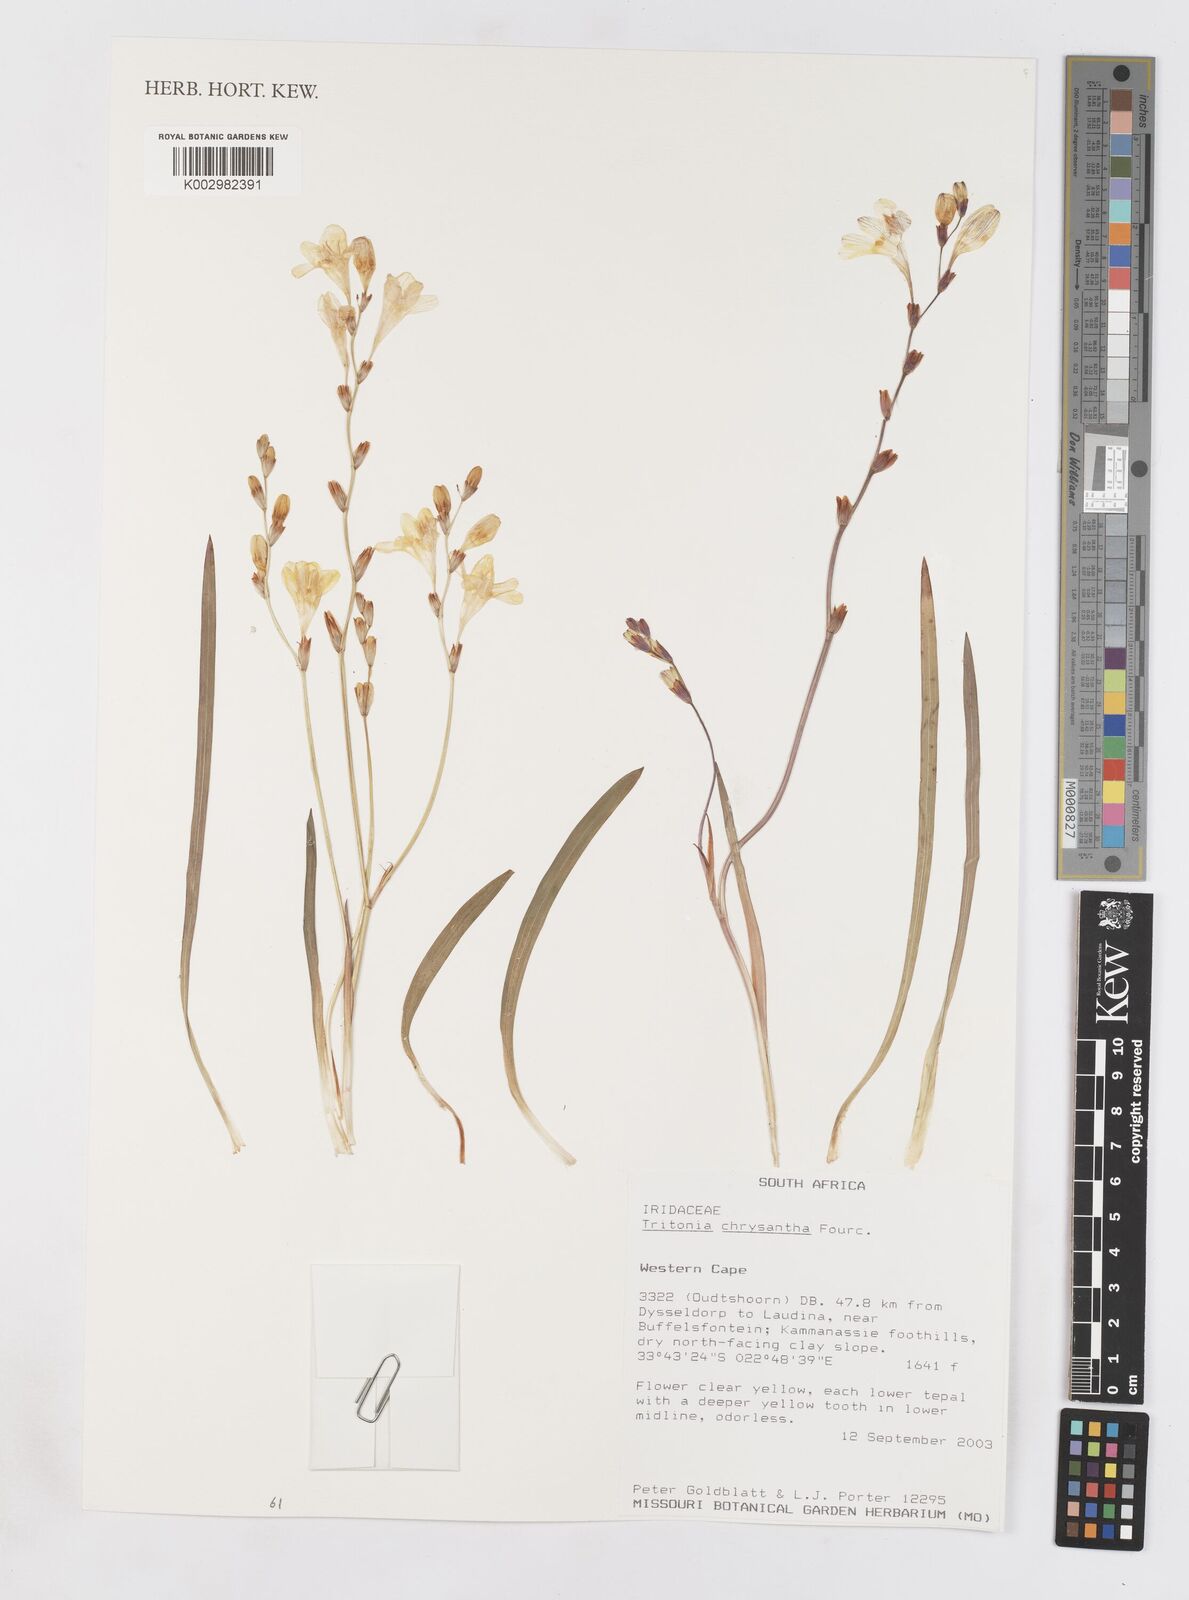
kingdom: Plantae
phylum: Tracheophyta
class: Liliopsida
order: Asparagales
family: Iridaceae
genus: Tritonia
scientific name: Tritonia chrysantha
